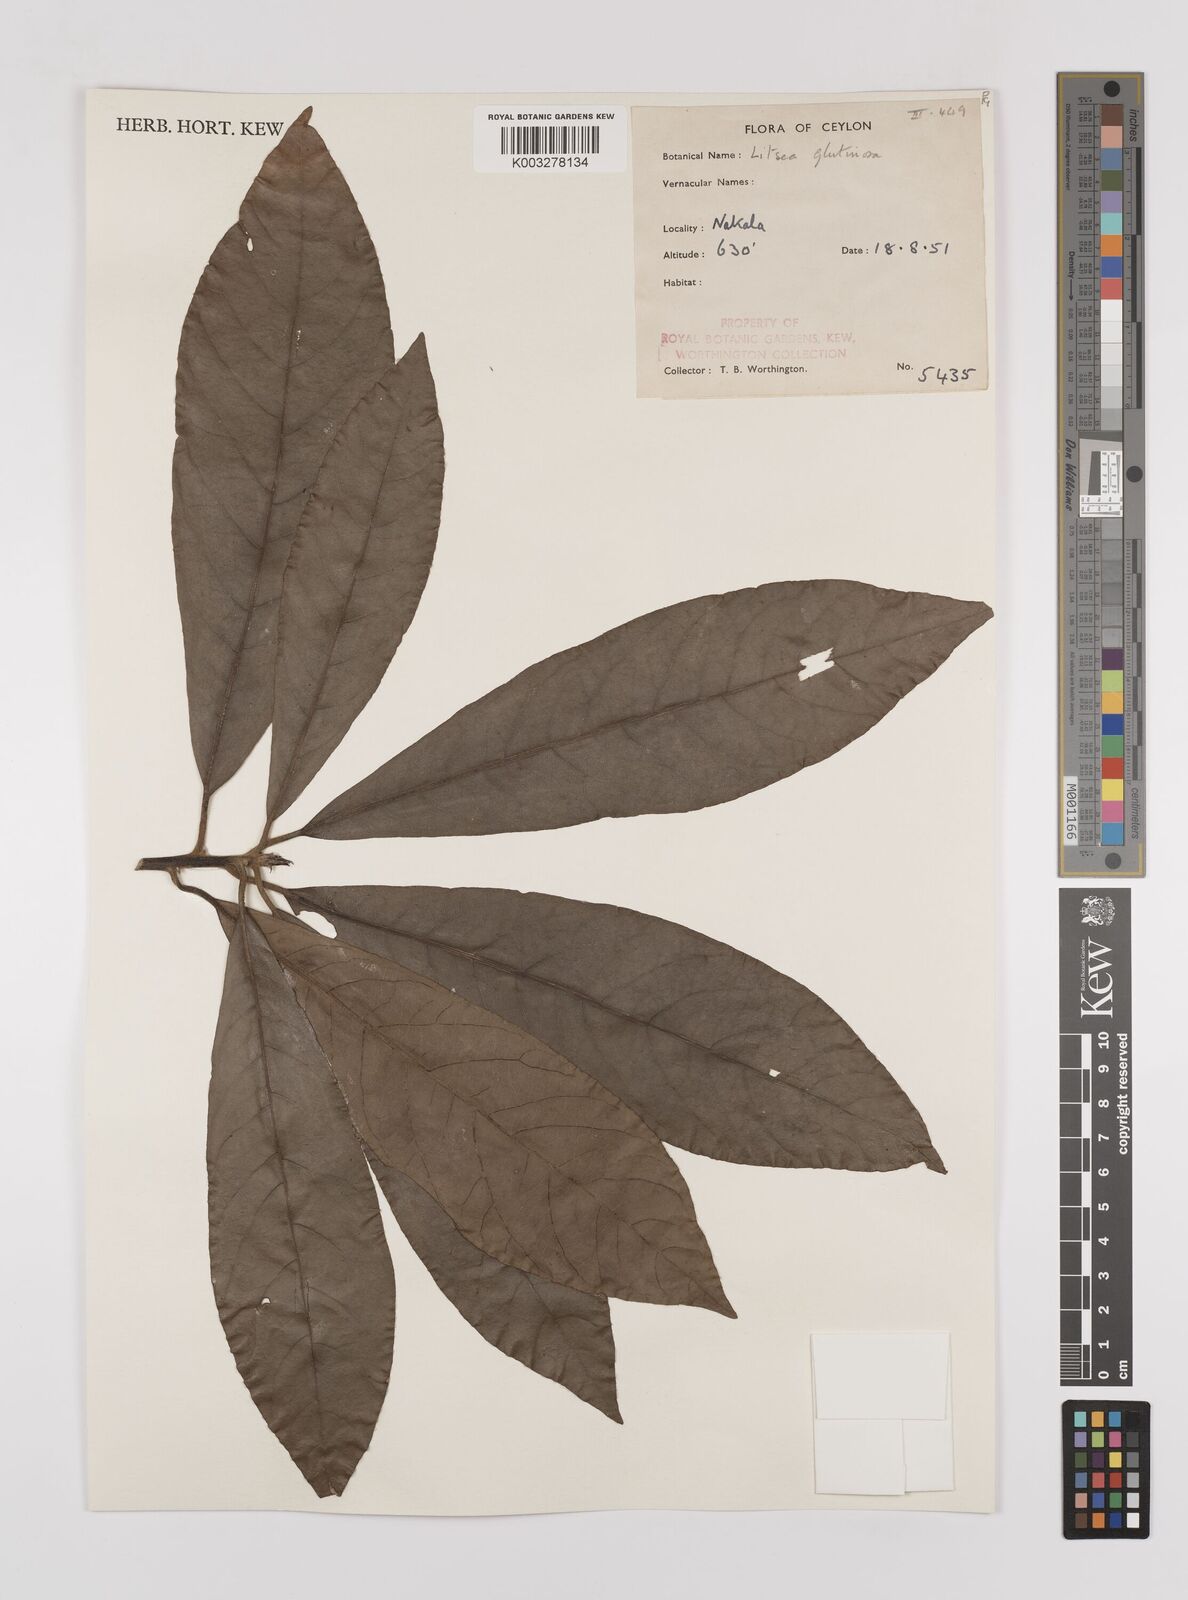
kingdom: Plantae
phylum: Tracheophyta
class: Magnoliopsida
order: Laurales
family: Lauraceae
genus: Litsea
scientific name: Litsea
